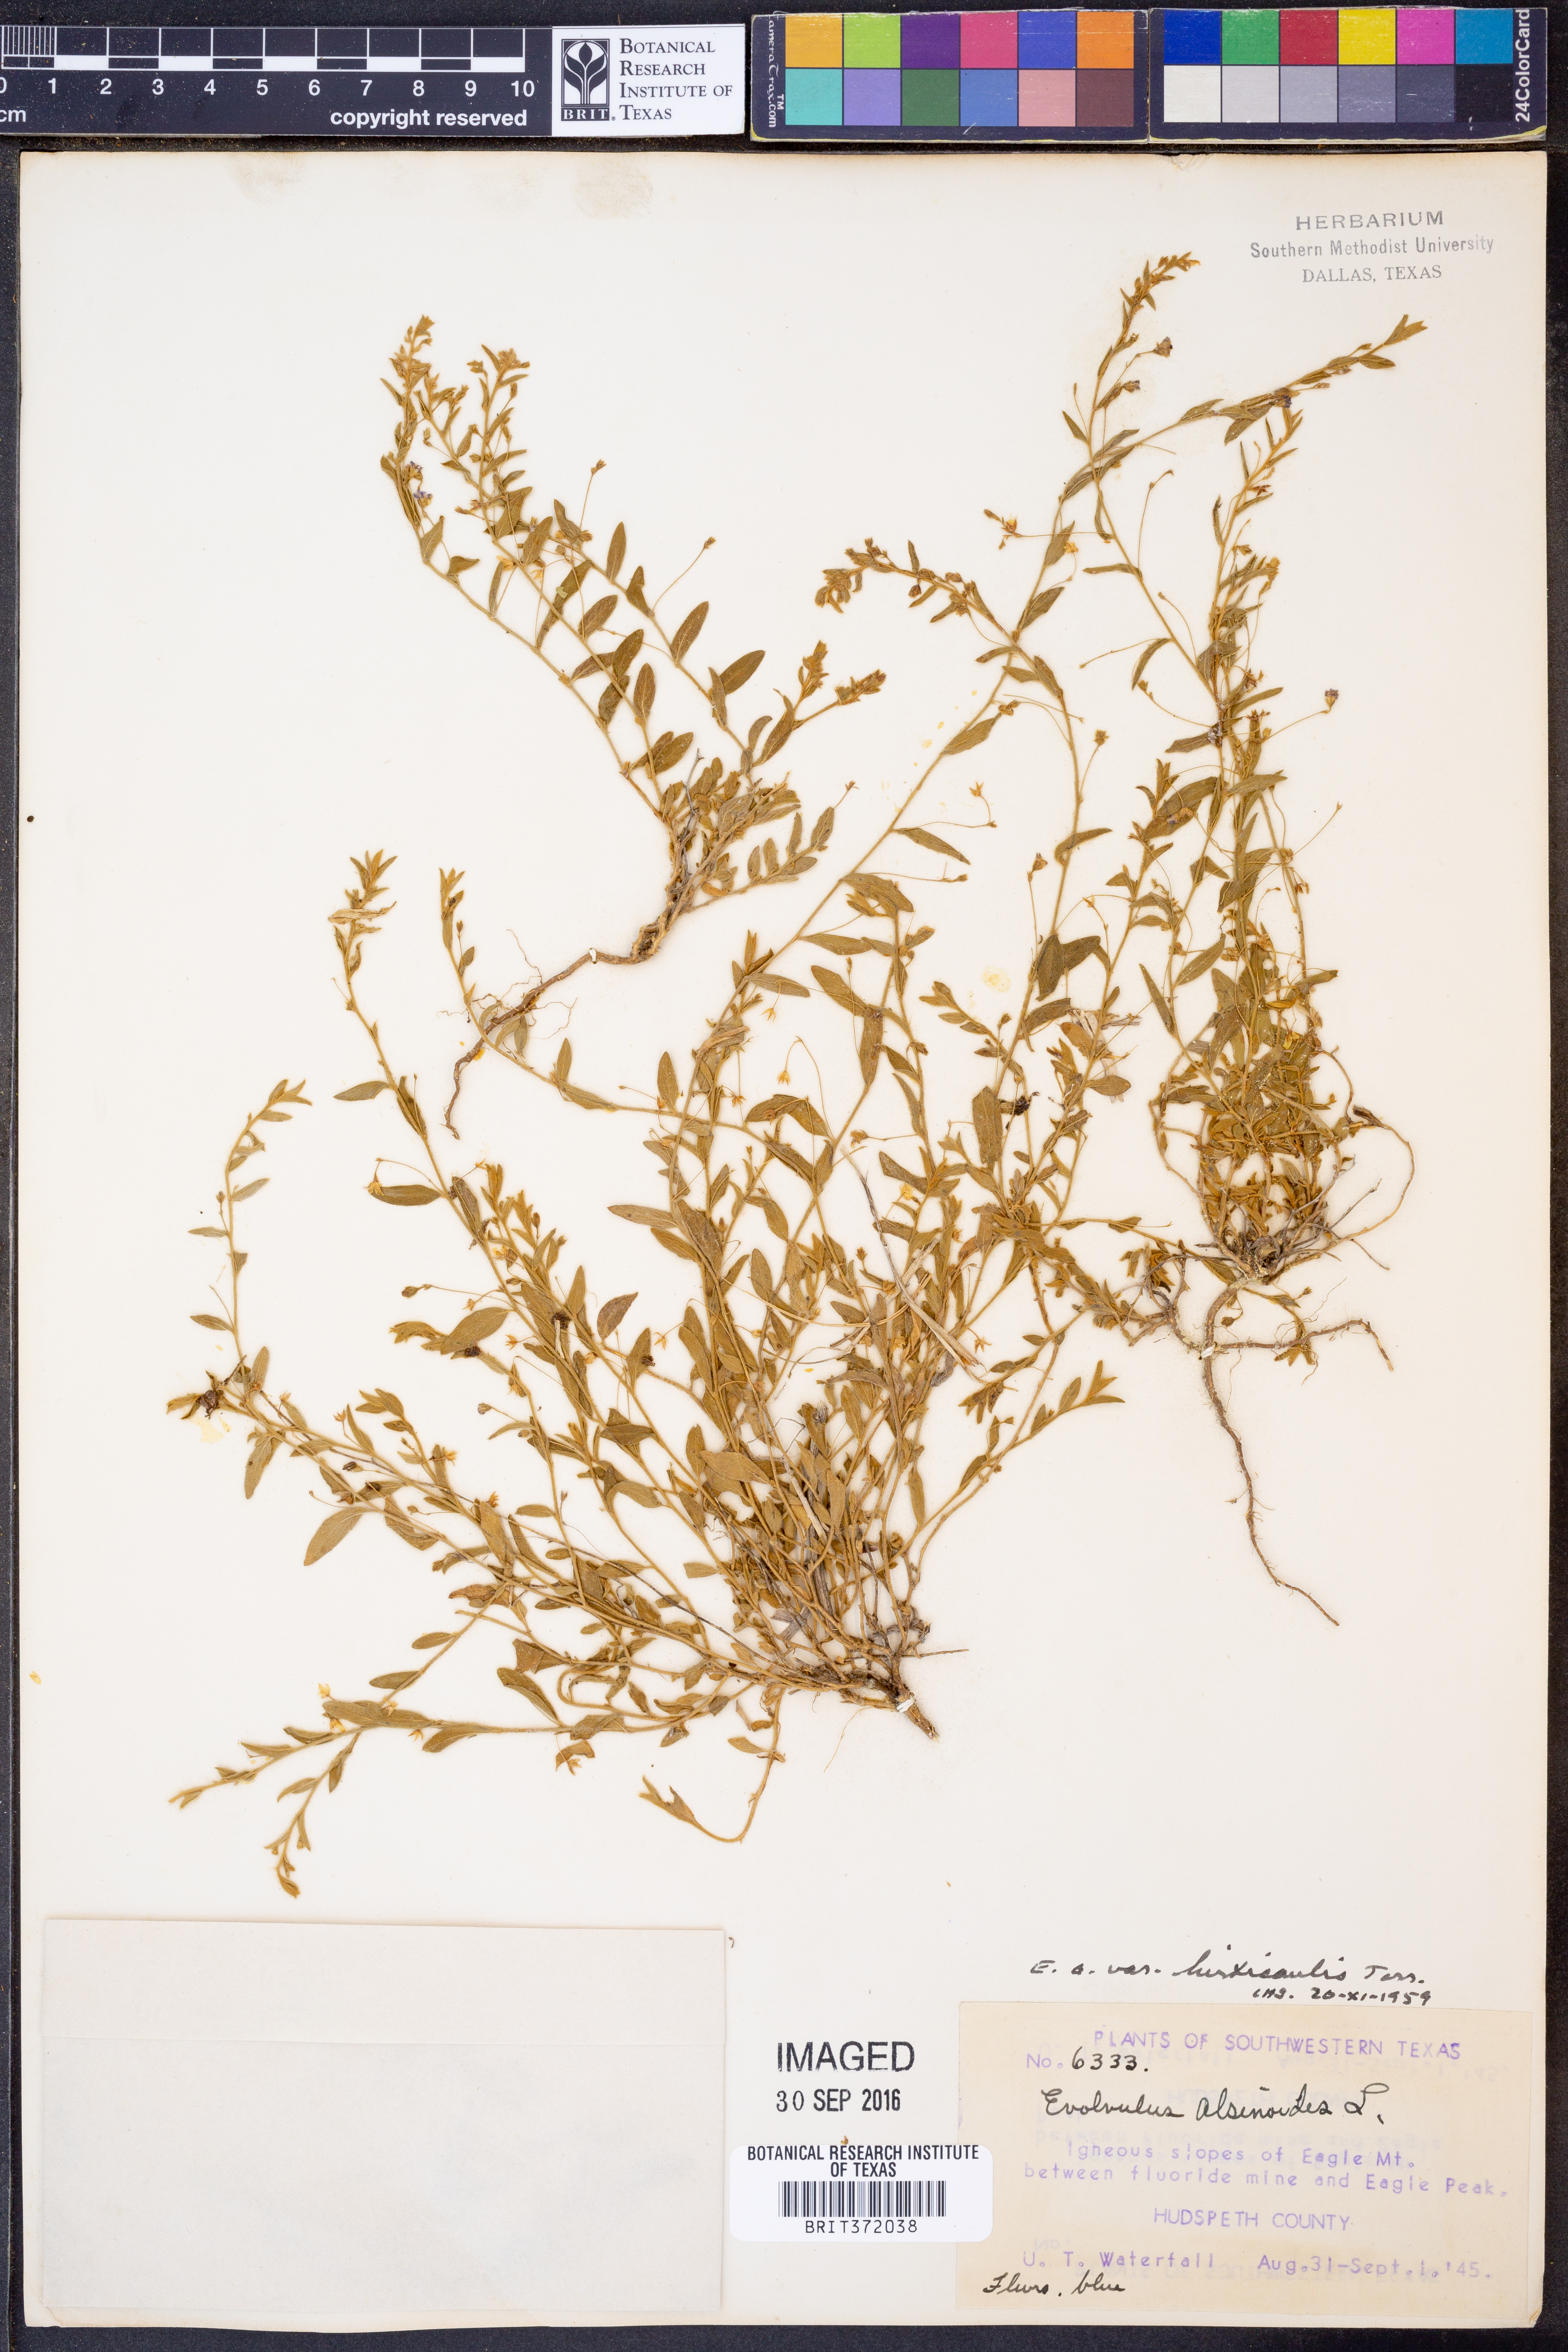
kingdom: Plantae
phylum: Tracheophyta
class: Magnoliopsida
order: Solanales
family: Convolvulaceae
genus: Evolvulus
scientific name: Evolvulus alsinoides
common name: Slender dwarf morning-glory
